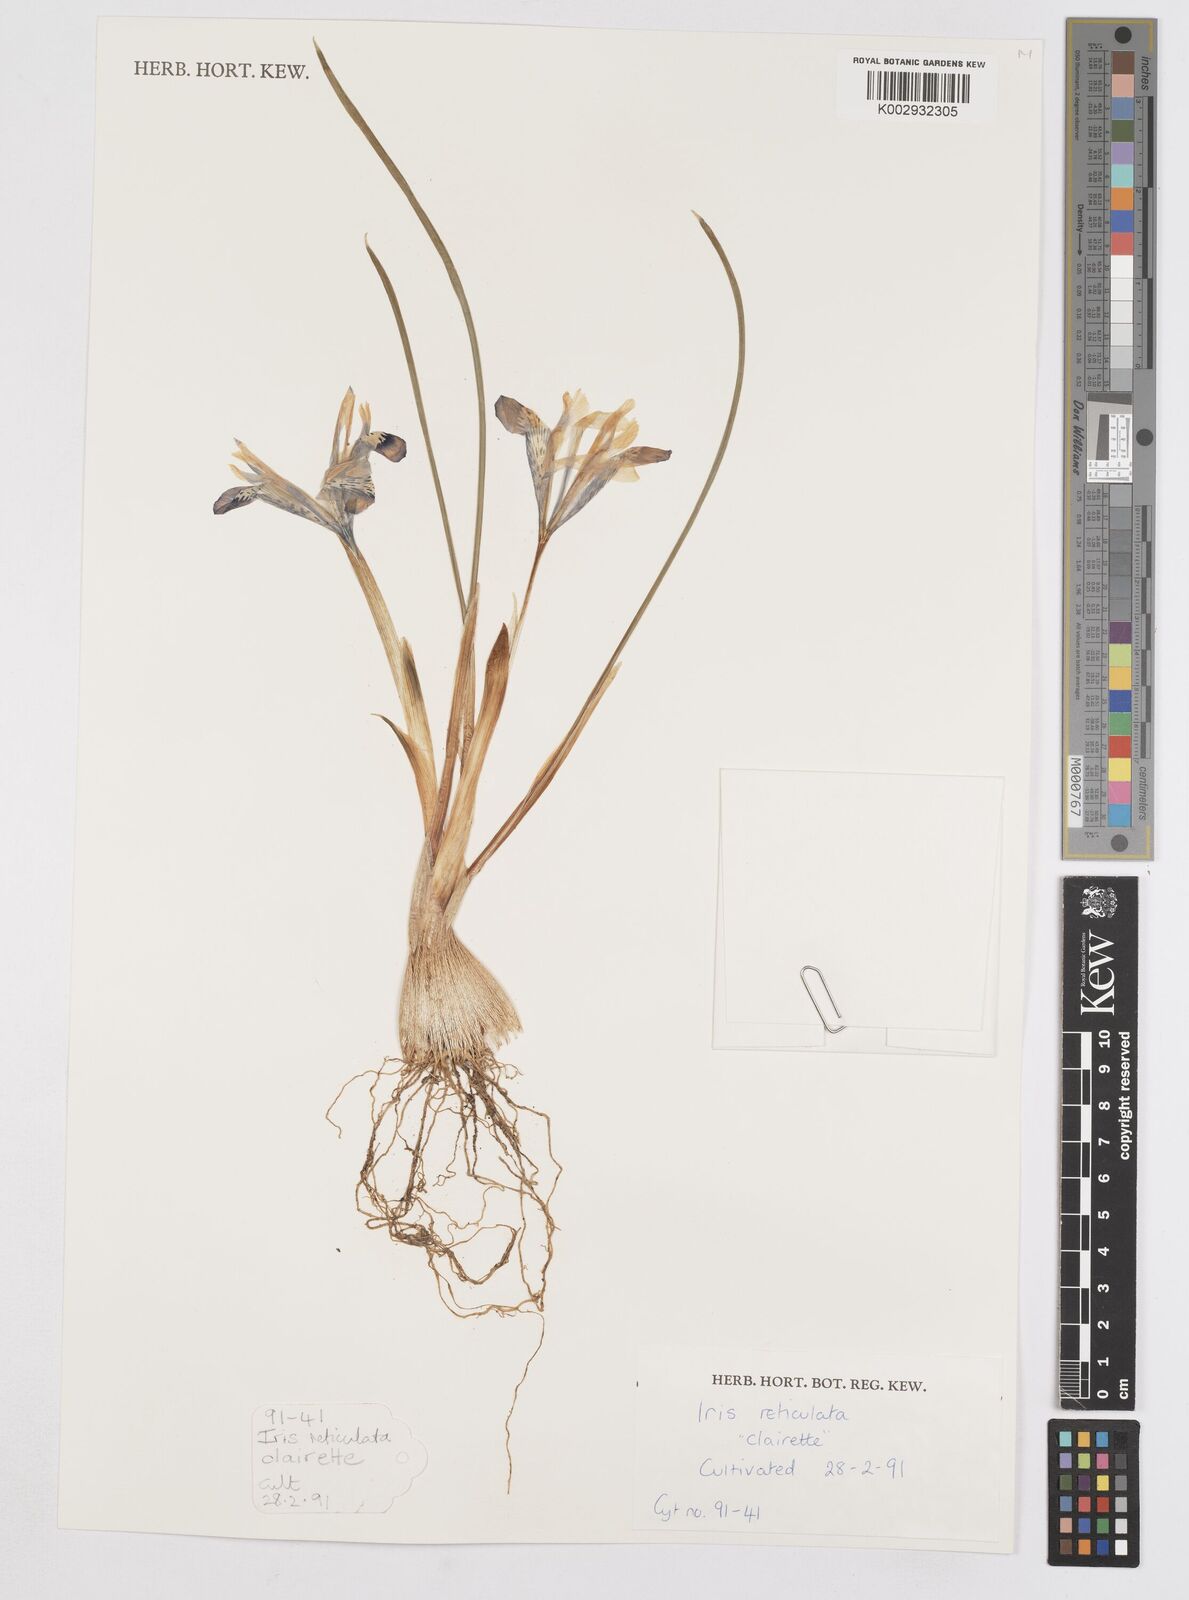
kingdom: Plantae
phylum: Tracheophyta
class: Liliopsida
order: Asparagales
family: Iridaceae
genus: Iris
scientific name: Iris reticulata
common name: Netted iris
